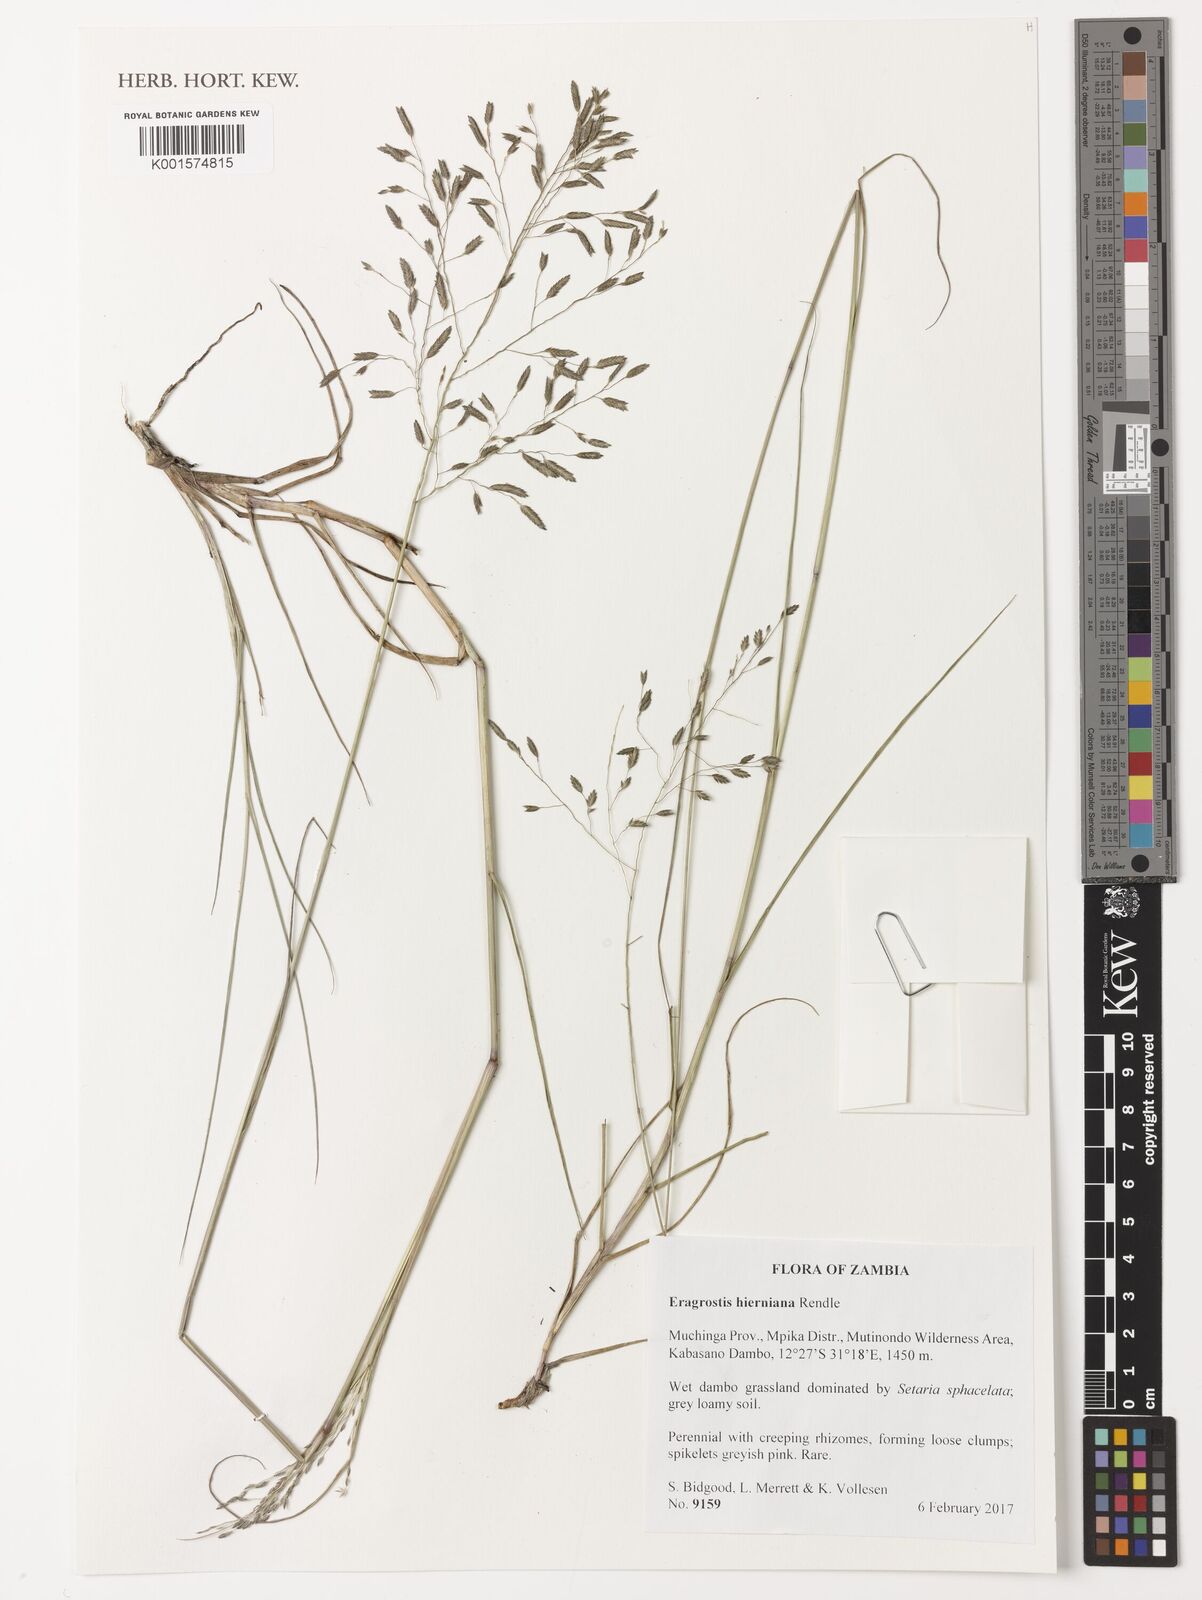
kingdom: Plantae
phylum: Tracheophyta
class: Liliopsida
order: Poales
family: Poaceae
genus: Eragrostis
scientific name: Eragrostis hierniana
